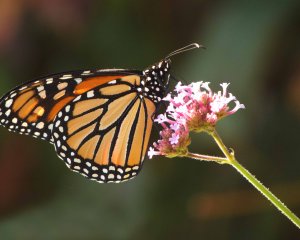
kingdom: Animalia
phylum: Arthropoda
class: Insecta
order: Lepidoptera
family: Nymphalidae
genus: Danaus
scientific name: Danaus plexippus
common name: Monarch
